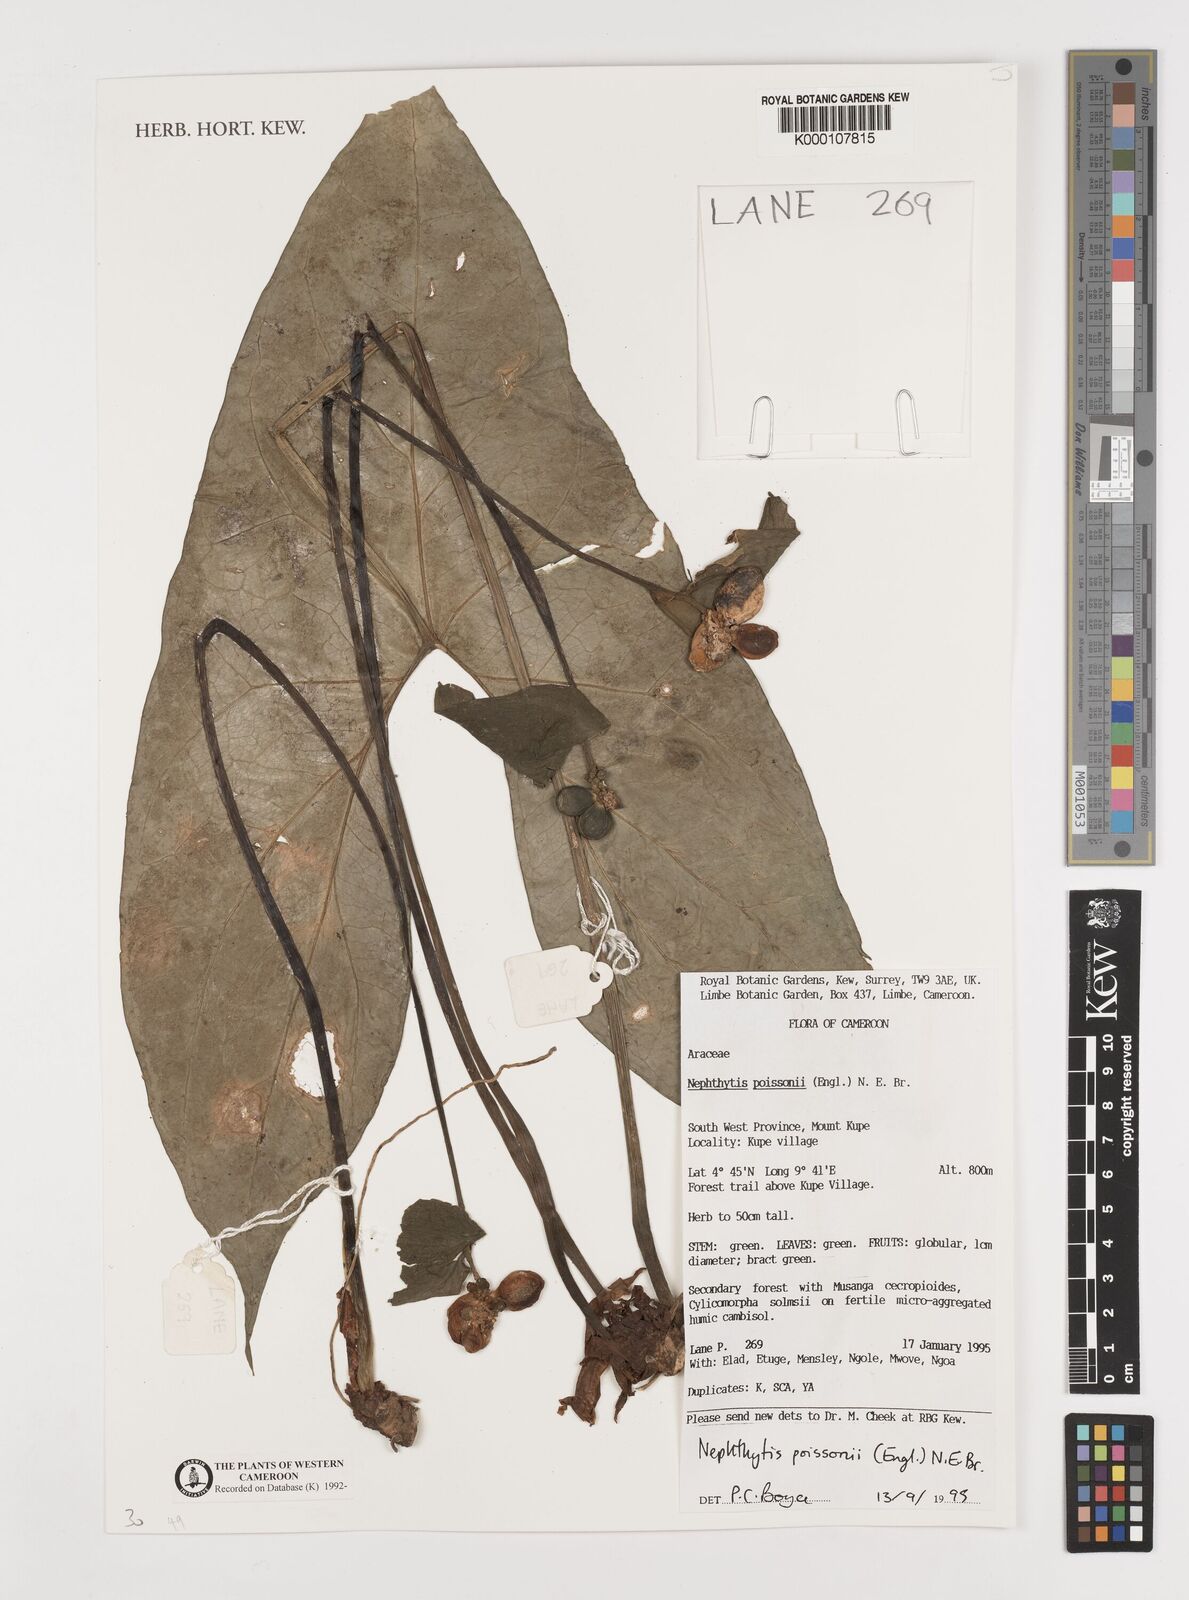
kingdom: Plantae
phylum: Tracheophyta
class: Liliopsida
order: Alismatales
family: Araceae
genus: Nephthytis
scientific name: Nephthytis poissonii
